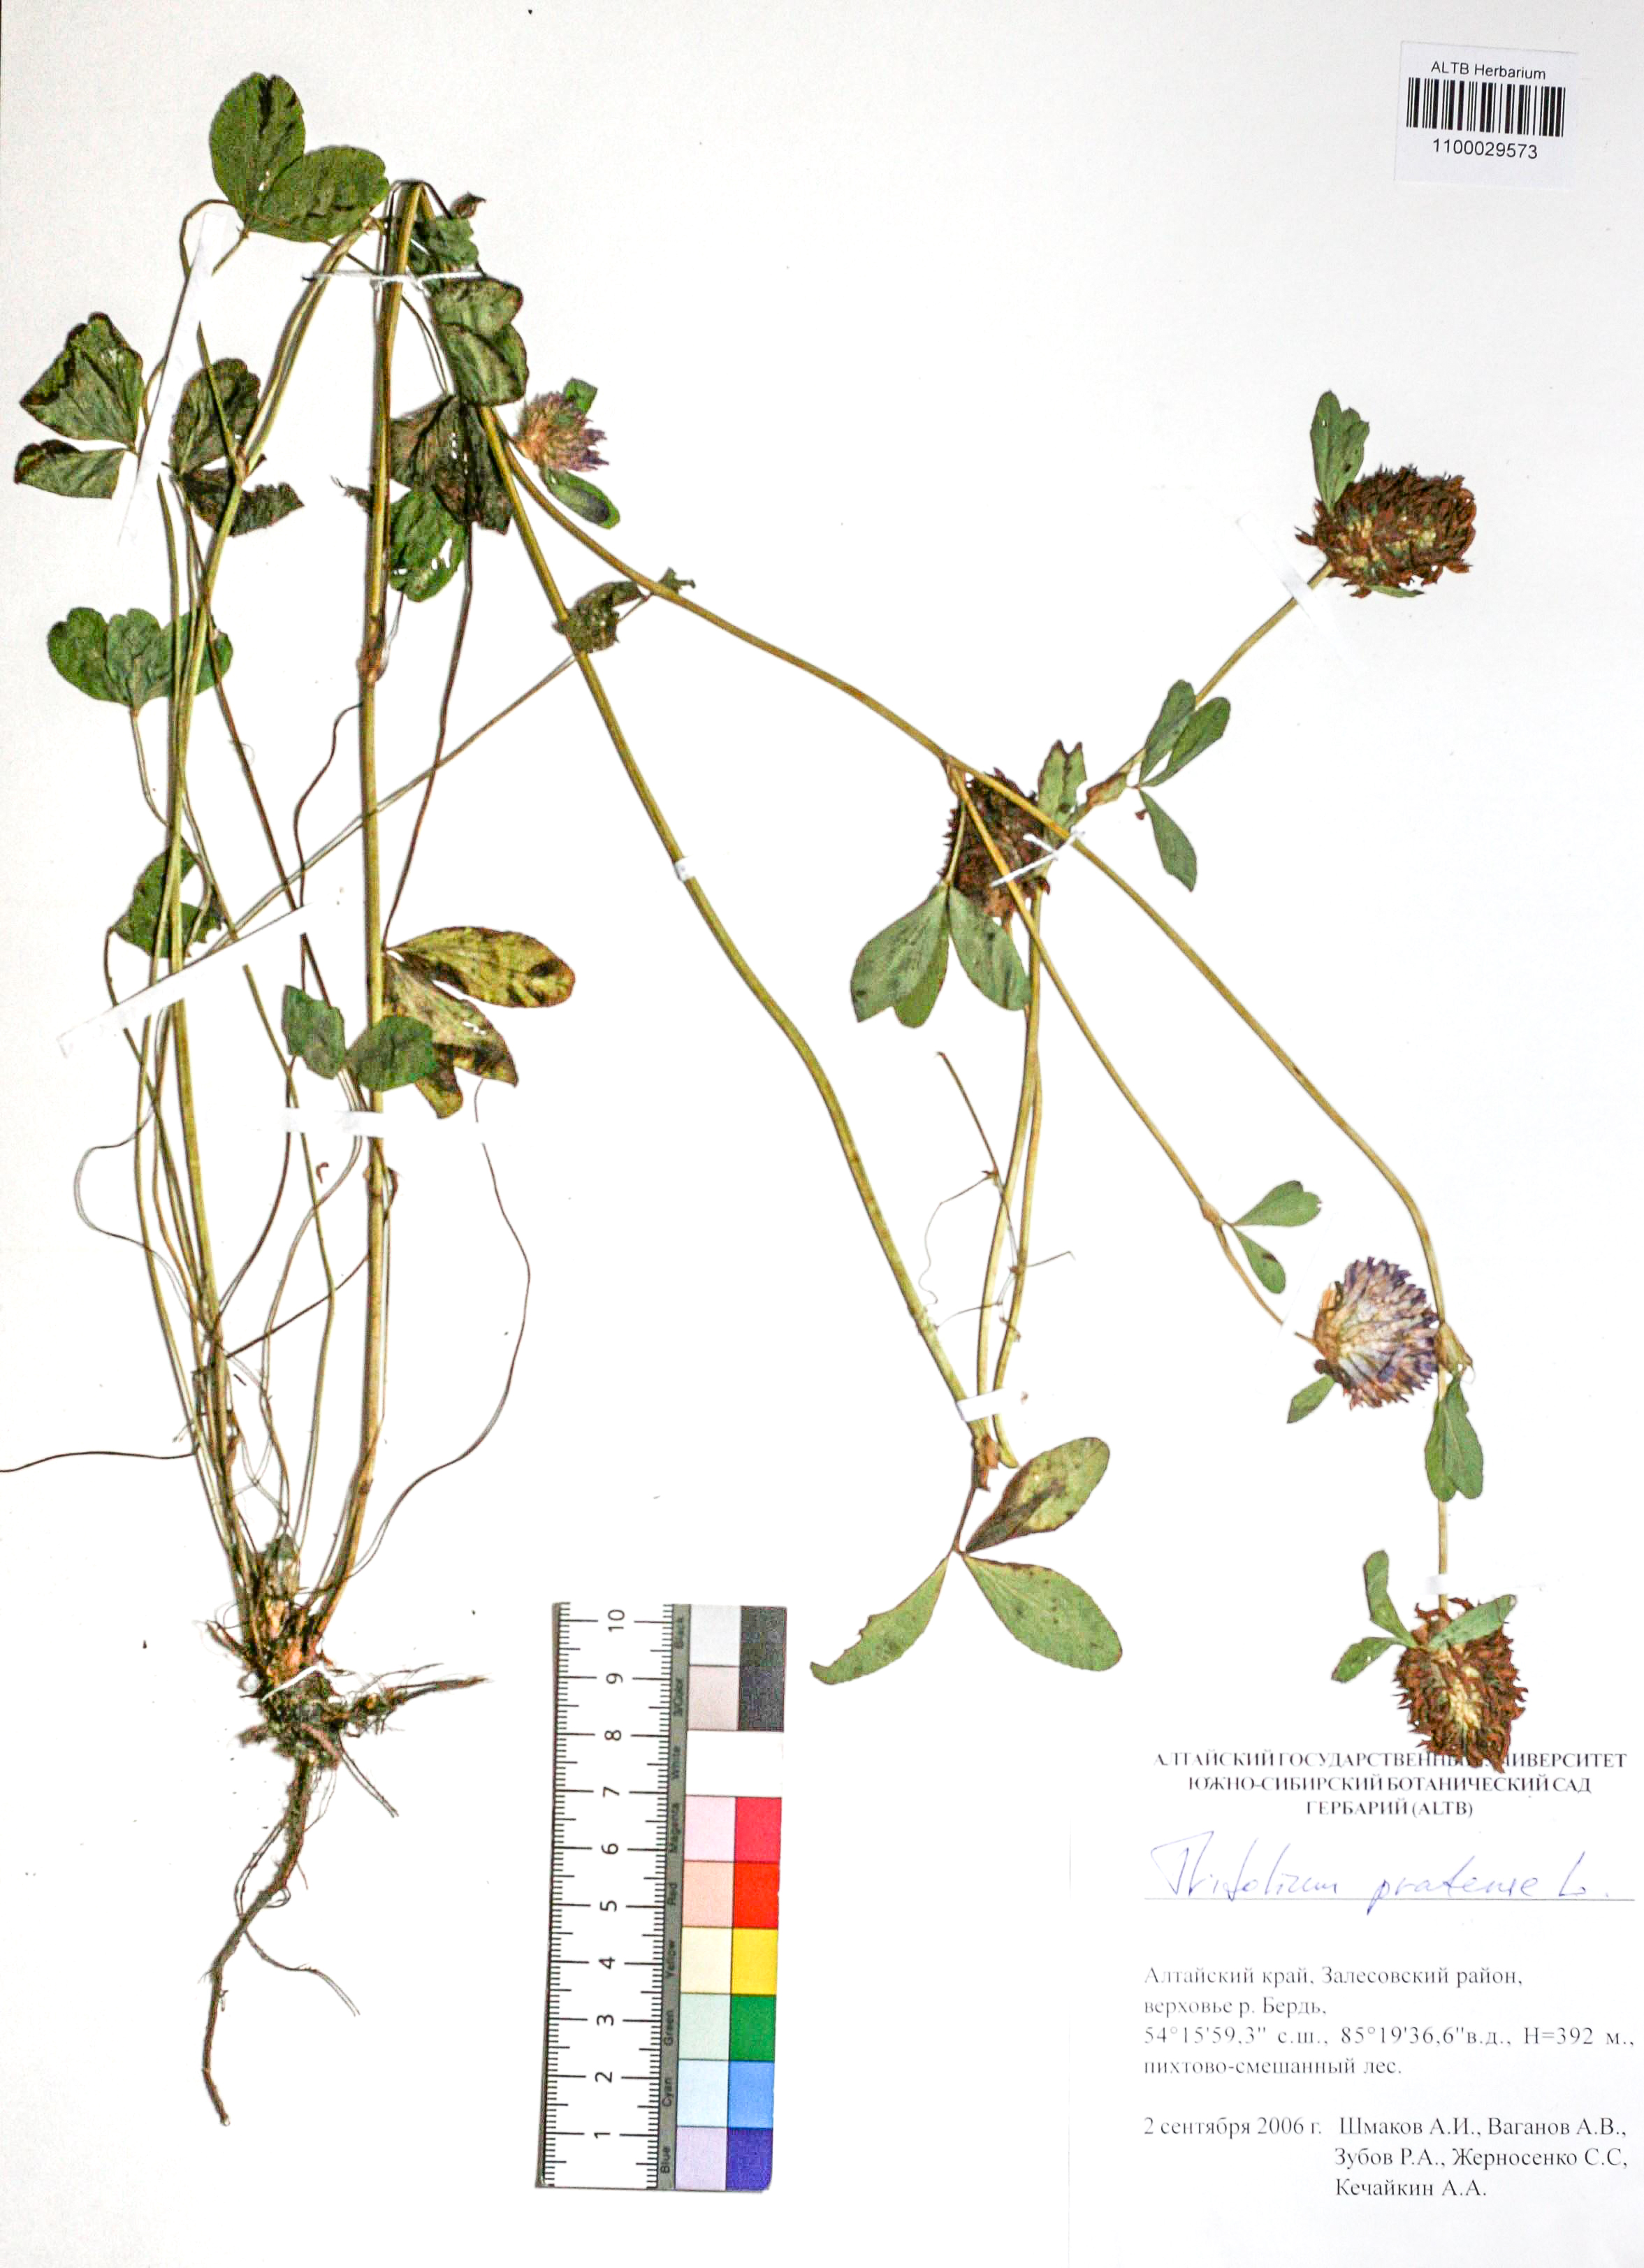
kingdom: Plantae
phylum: Tracheophyta
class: Magnoliopsida
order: Fabales
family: Fabaceae
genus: Trifolium
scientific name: Trifolium pratense
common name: Red clover
